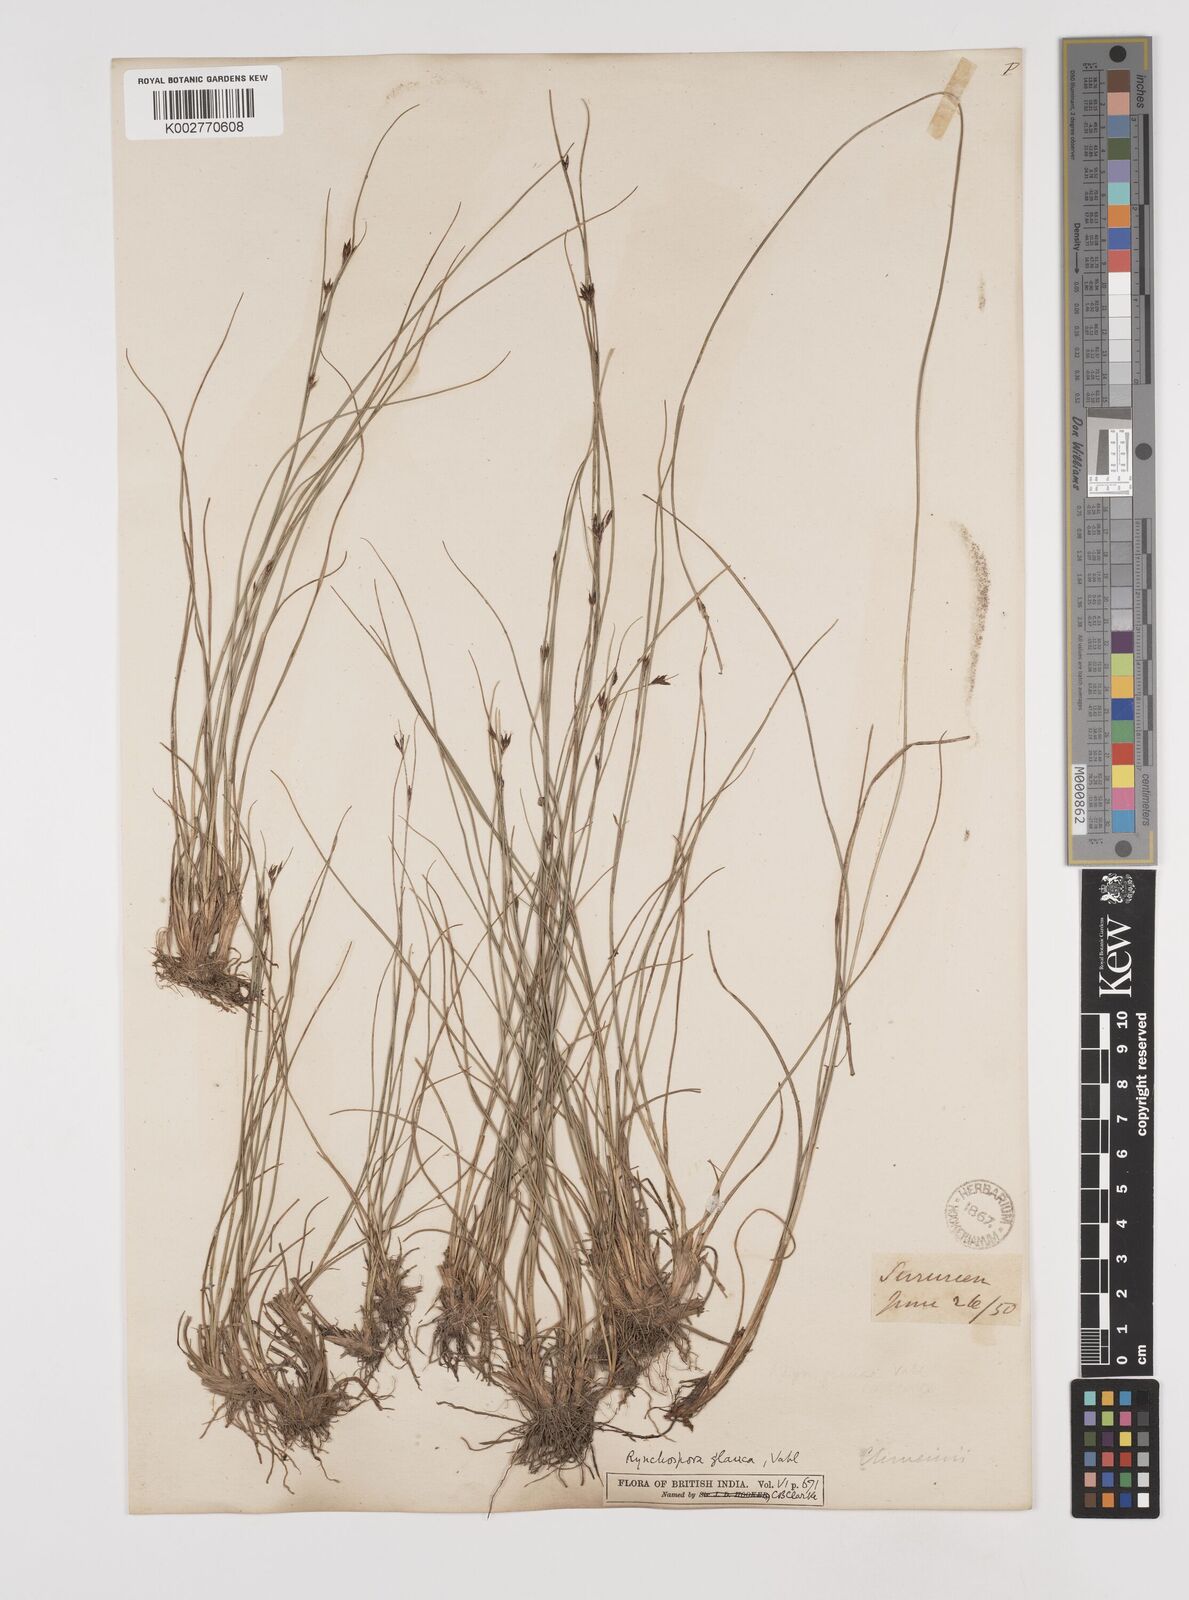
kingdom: Plantae
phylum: Tracheophyta
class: Liliopsida
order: Poales
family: Cyperaceae
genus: Rhynchospora
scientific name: Rhynchospora rugosa
